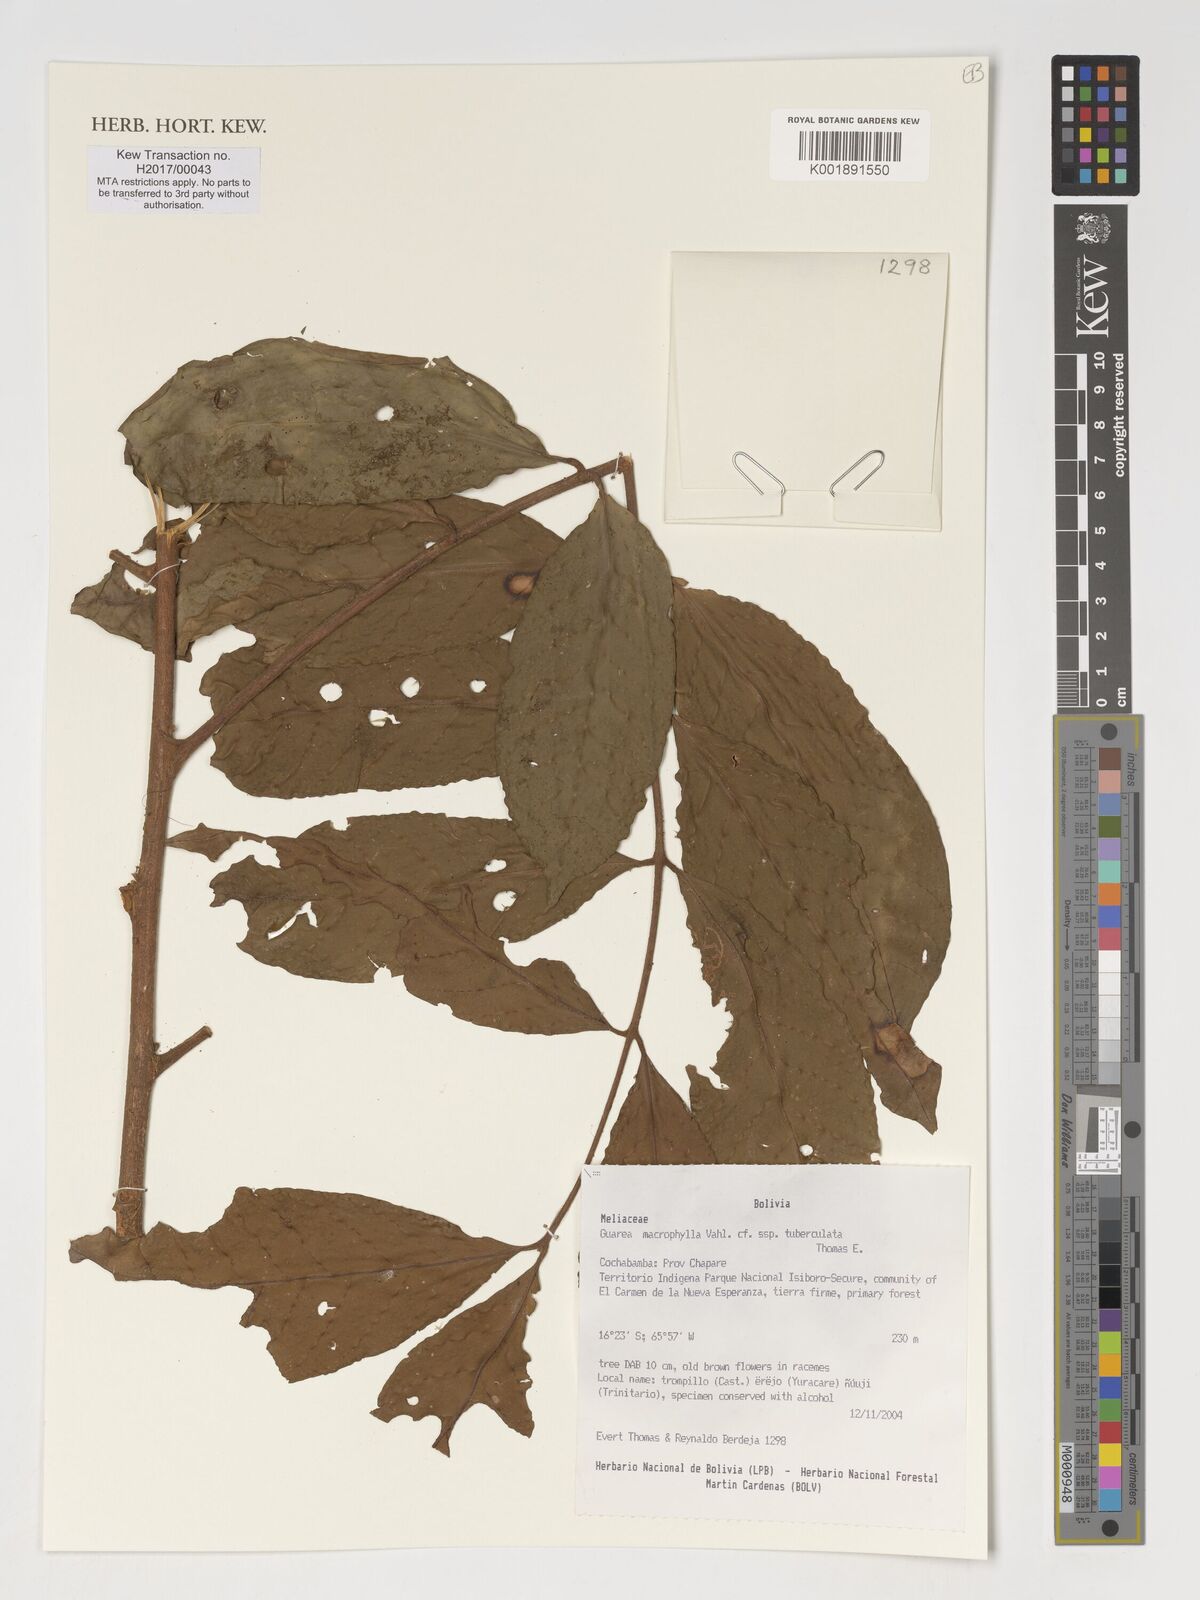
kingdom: Plantae
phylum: Tracheophyta
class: Magnoliopsida
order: Sapindales
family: Meliaceae
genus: Guarea
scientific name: Guarea macrophylla
